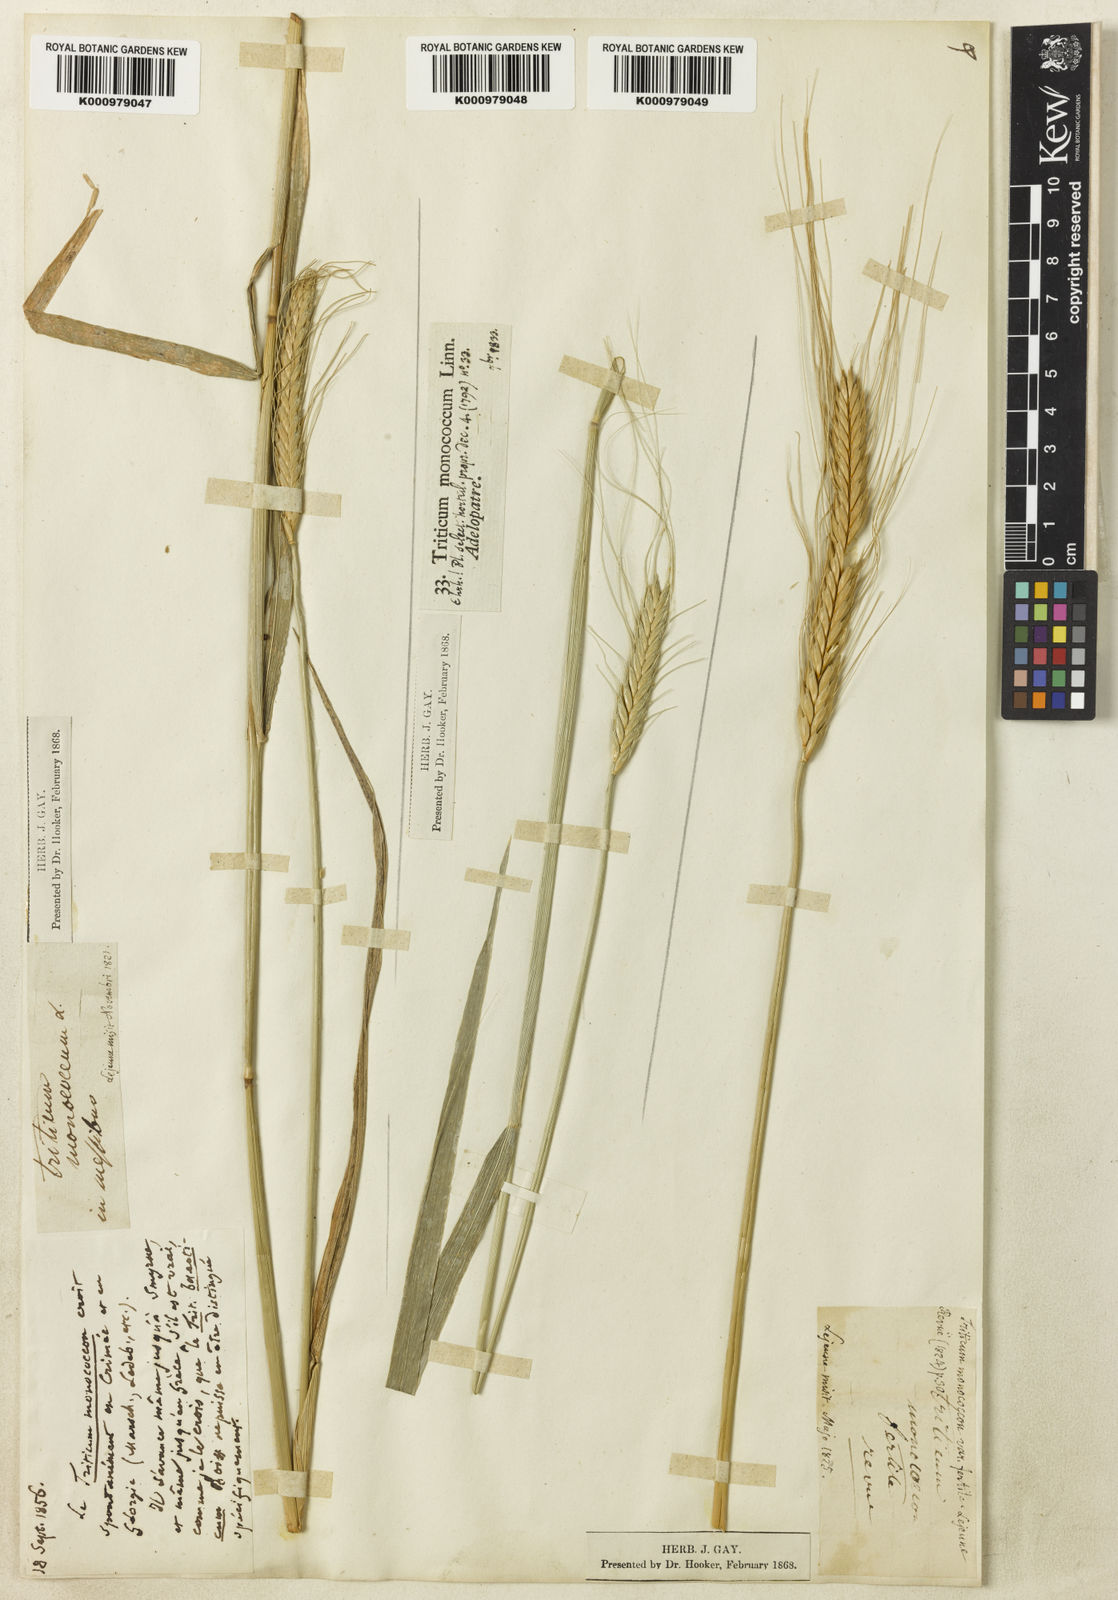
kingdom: Plantae
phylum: Tracheophyta
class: Liliopsida
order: Poales
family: Poaceae
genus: Triticum
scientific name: Triticum monococcum
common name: Einkorn
